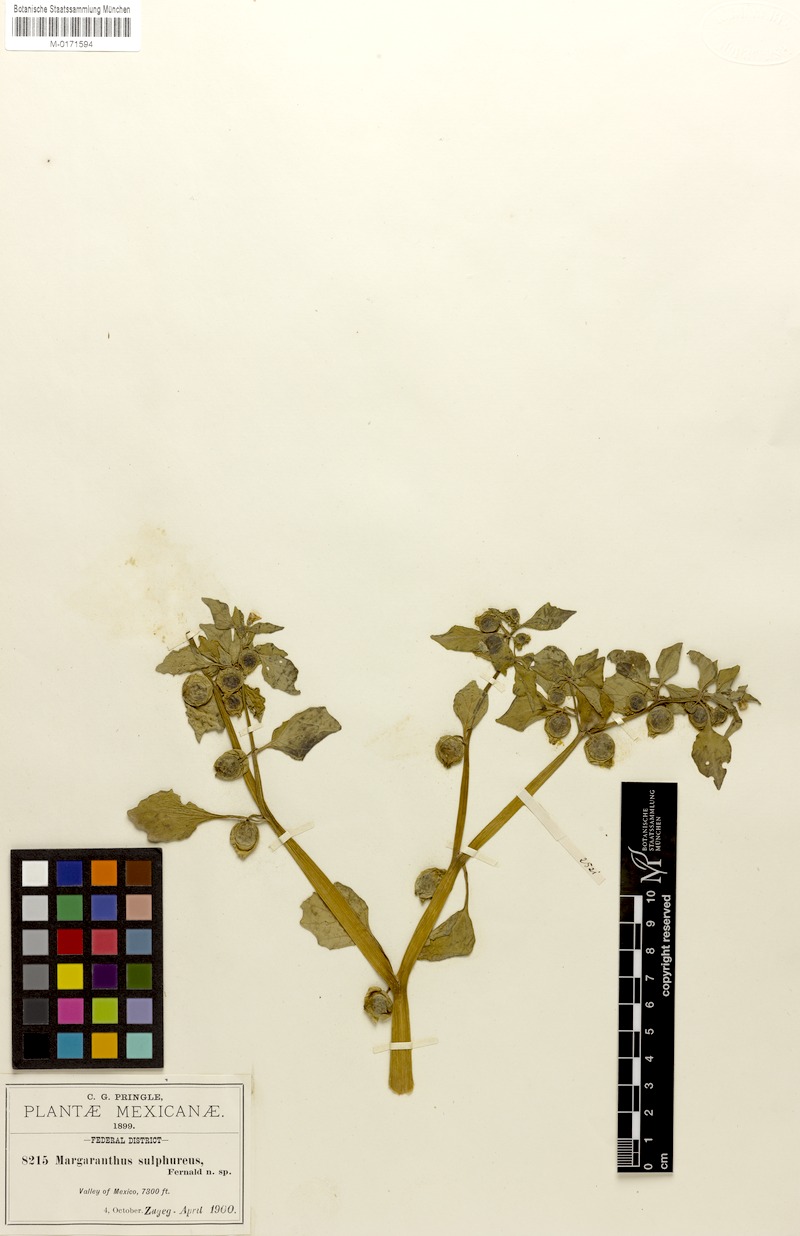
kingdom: Plantae
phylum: Tracheophyta
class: Magnoliopsida
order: Solanales
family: Solanaceae
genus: Physalis
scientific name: Physalis sulphurea
